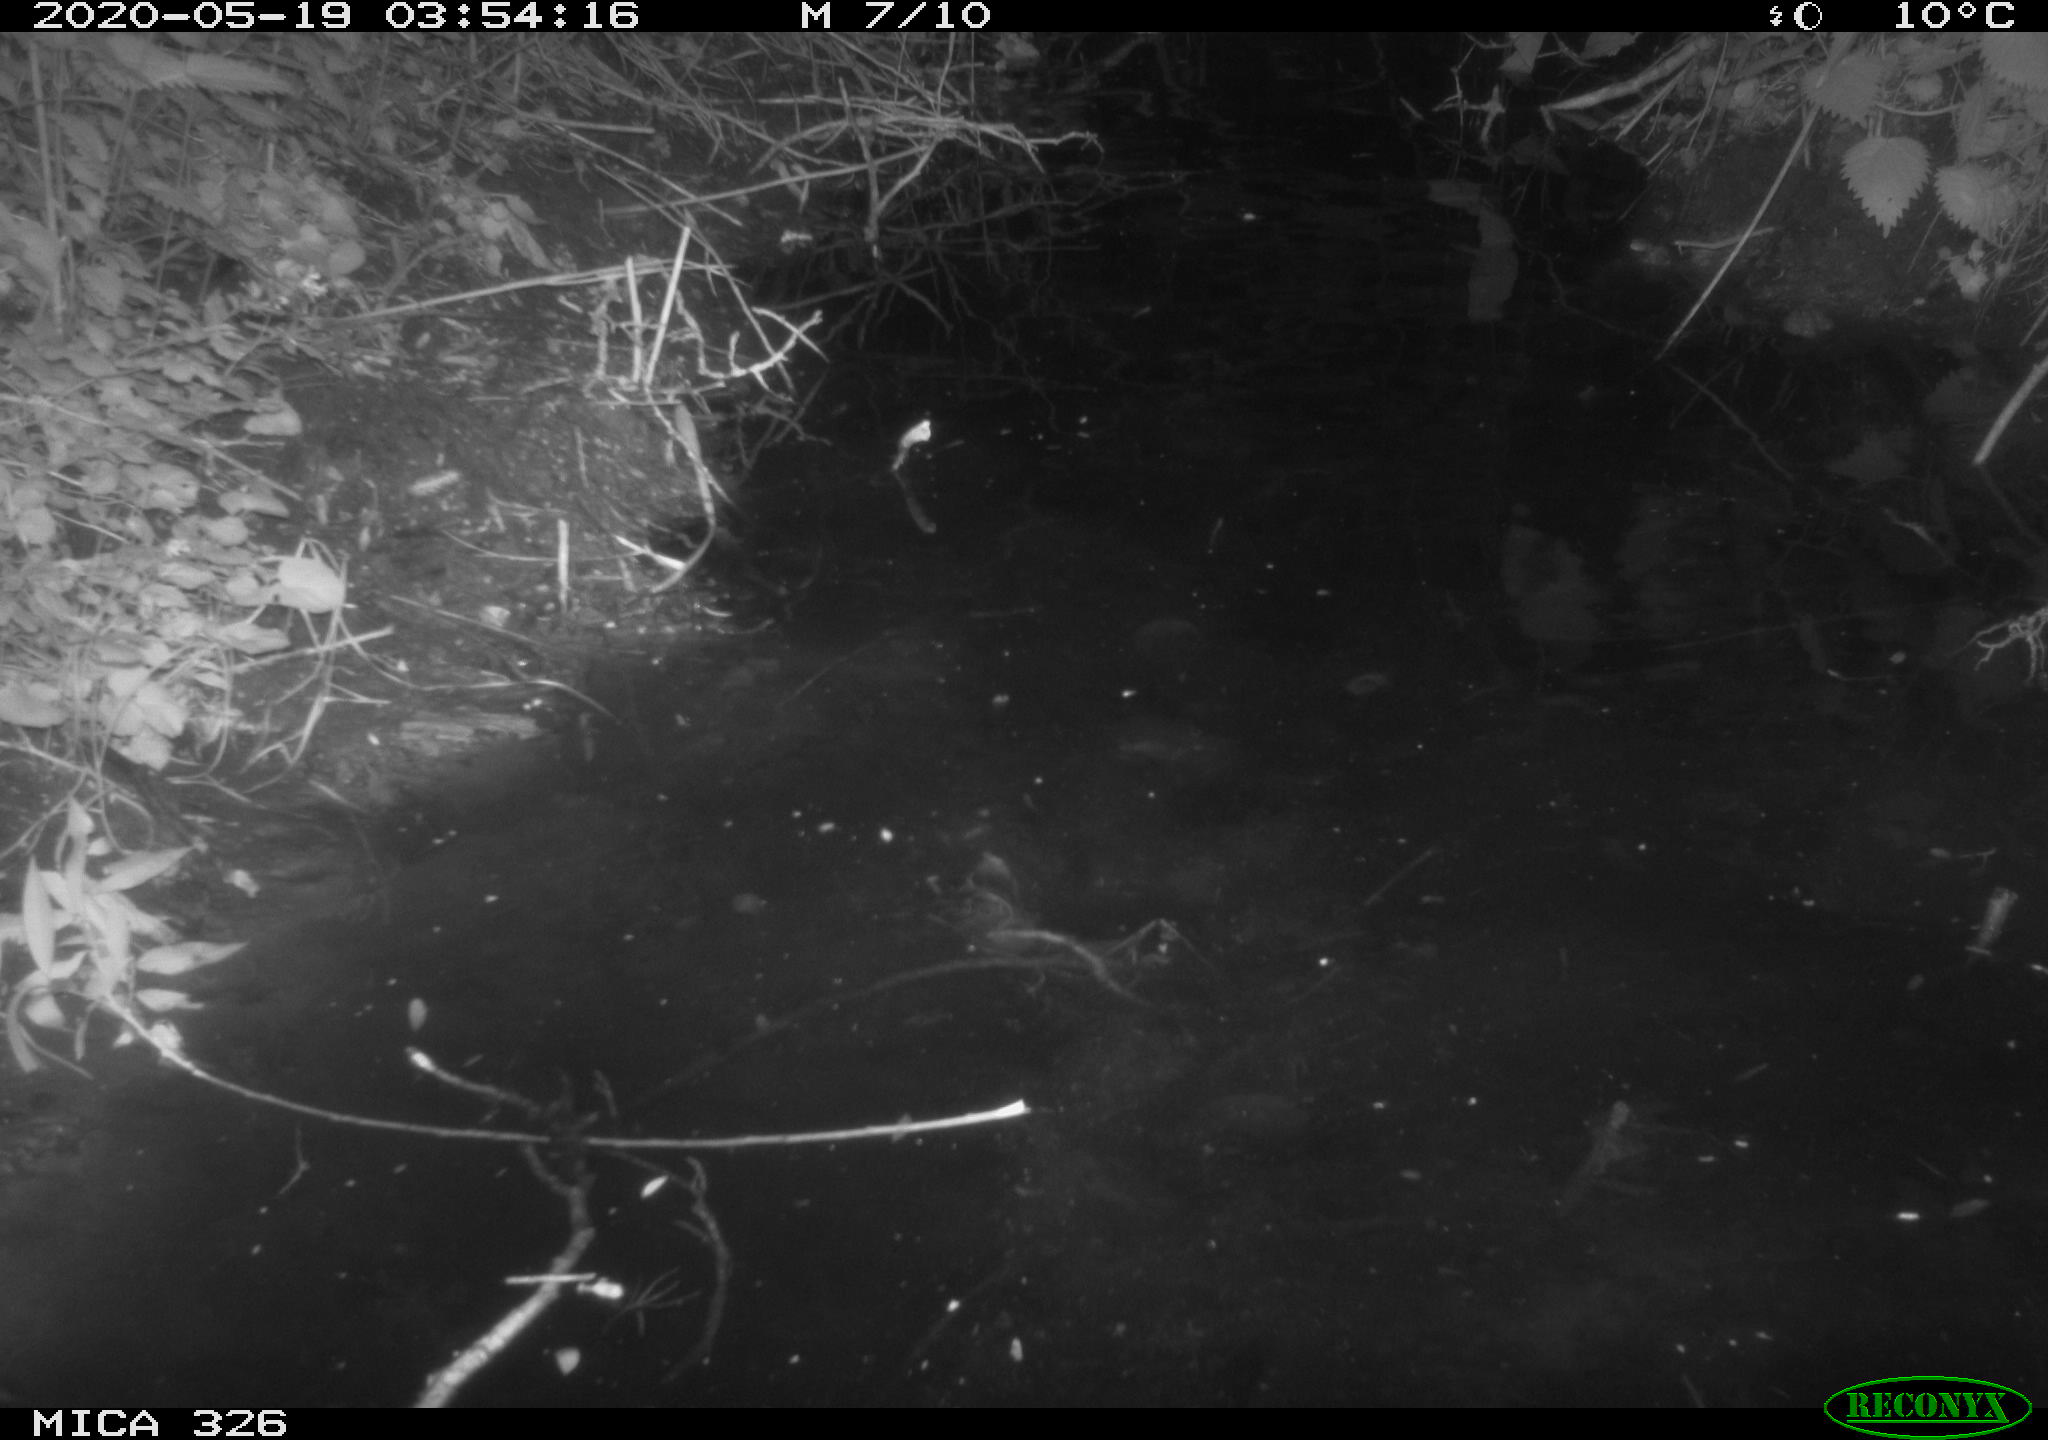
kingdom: Animalia
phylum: Chordata
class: Mammalia
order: Rodentia
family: Cricetidae
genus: Ondatra
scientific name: Ondatra zibethicus
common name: Muskrat
